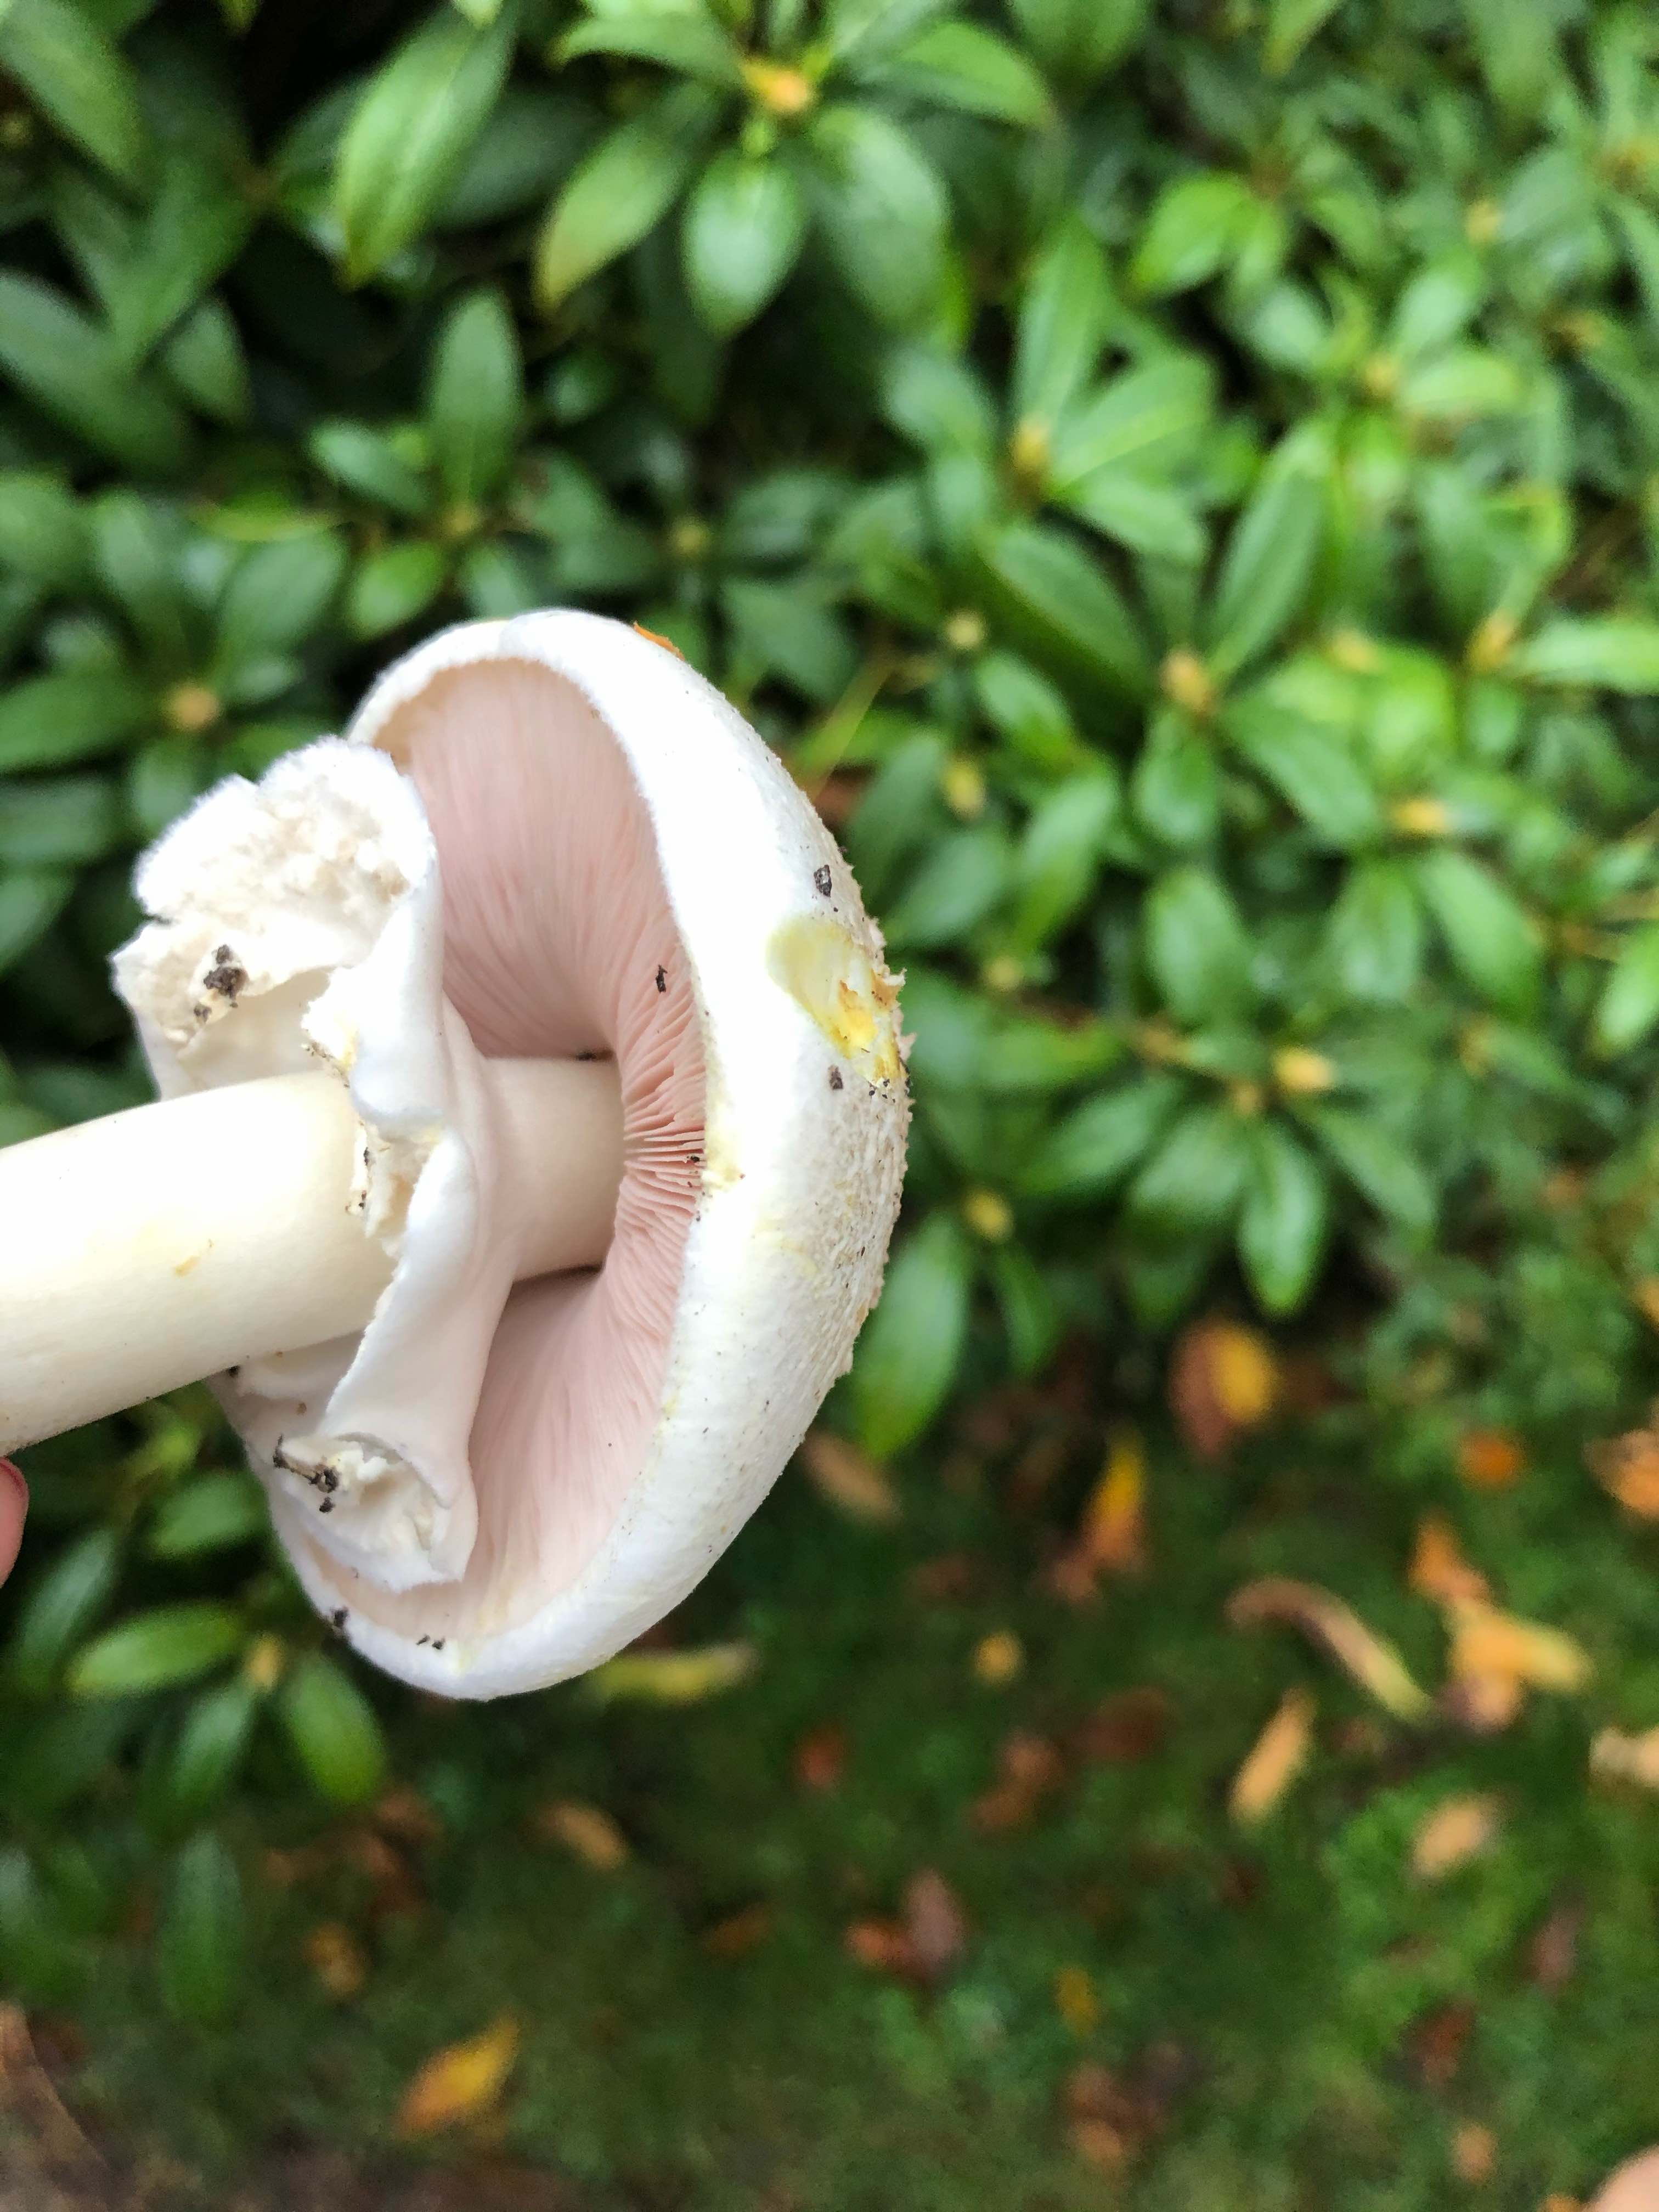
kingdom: Fungi
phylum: Basidiomycota
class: Agaricomycetes
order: Agaricales
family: Agaricaceae
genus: Agaricus
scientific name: Agaricus xanthodermus
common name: karbol-champignon
